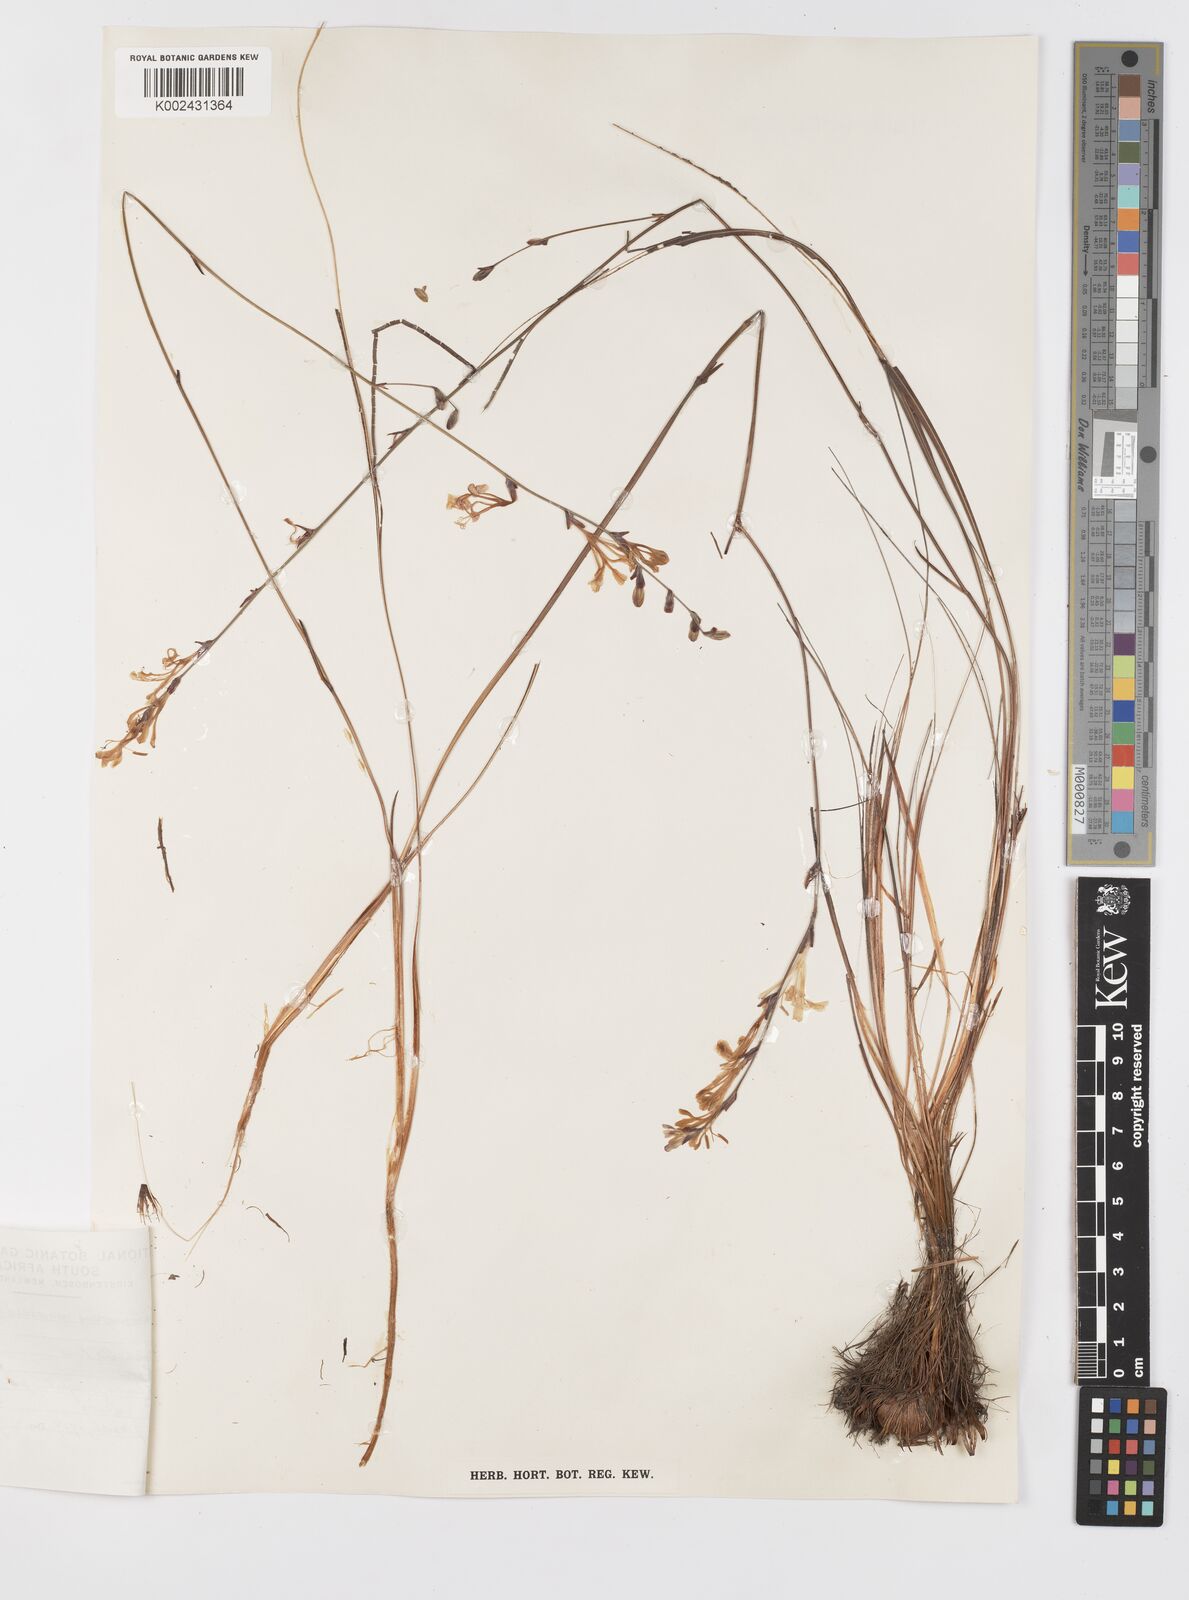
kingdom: Plantae
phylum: Tracheophyta
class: Liliopsida
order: Asparagales
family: Iridaceae
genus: Tritoniopsis
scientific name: Tritoniopsis ramosa
